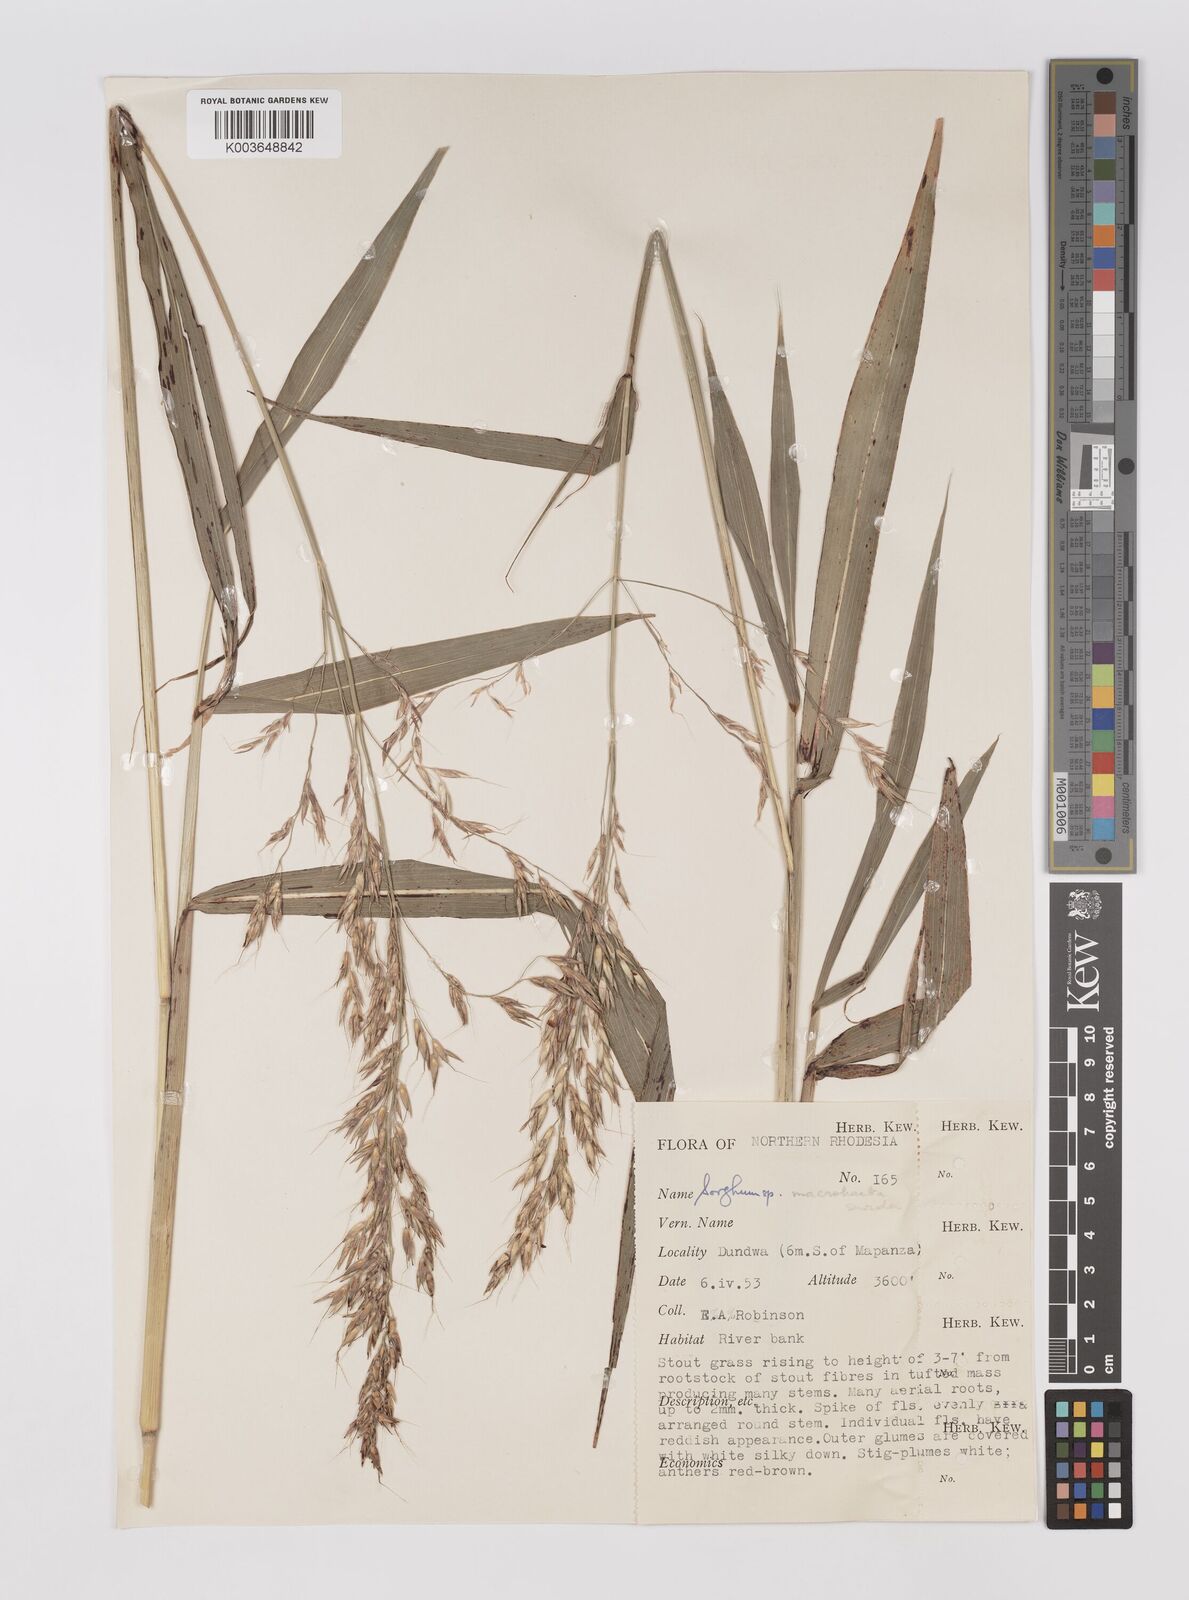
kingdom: Plantae
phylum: Tracheophyta
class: Liliopsida
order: Poales
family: Poaceae
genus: Sorghum
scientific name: Sorghum arundinaceum
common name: Sorghum
